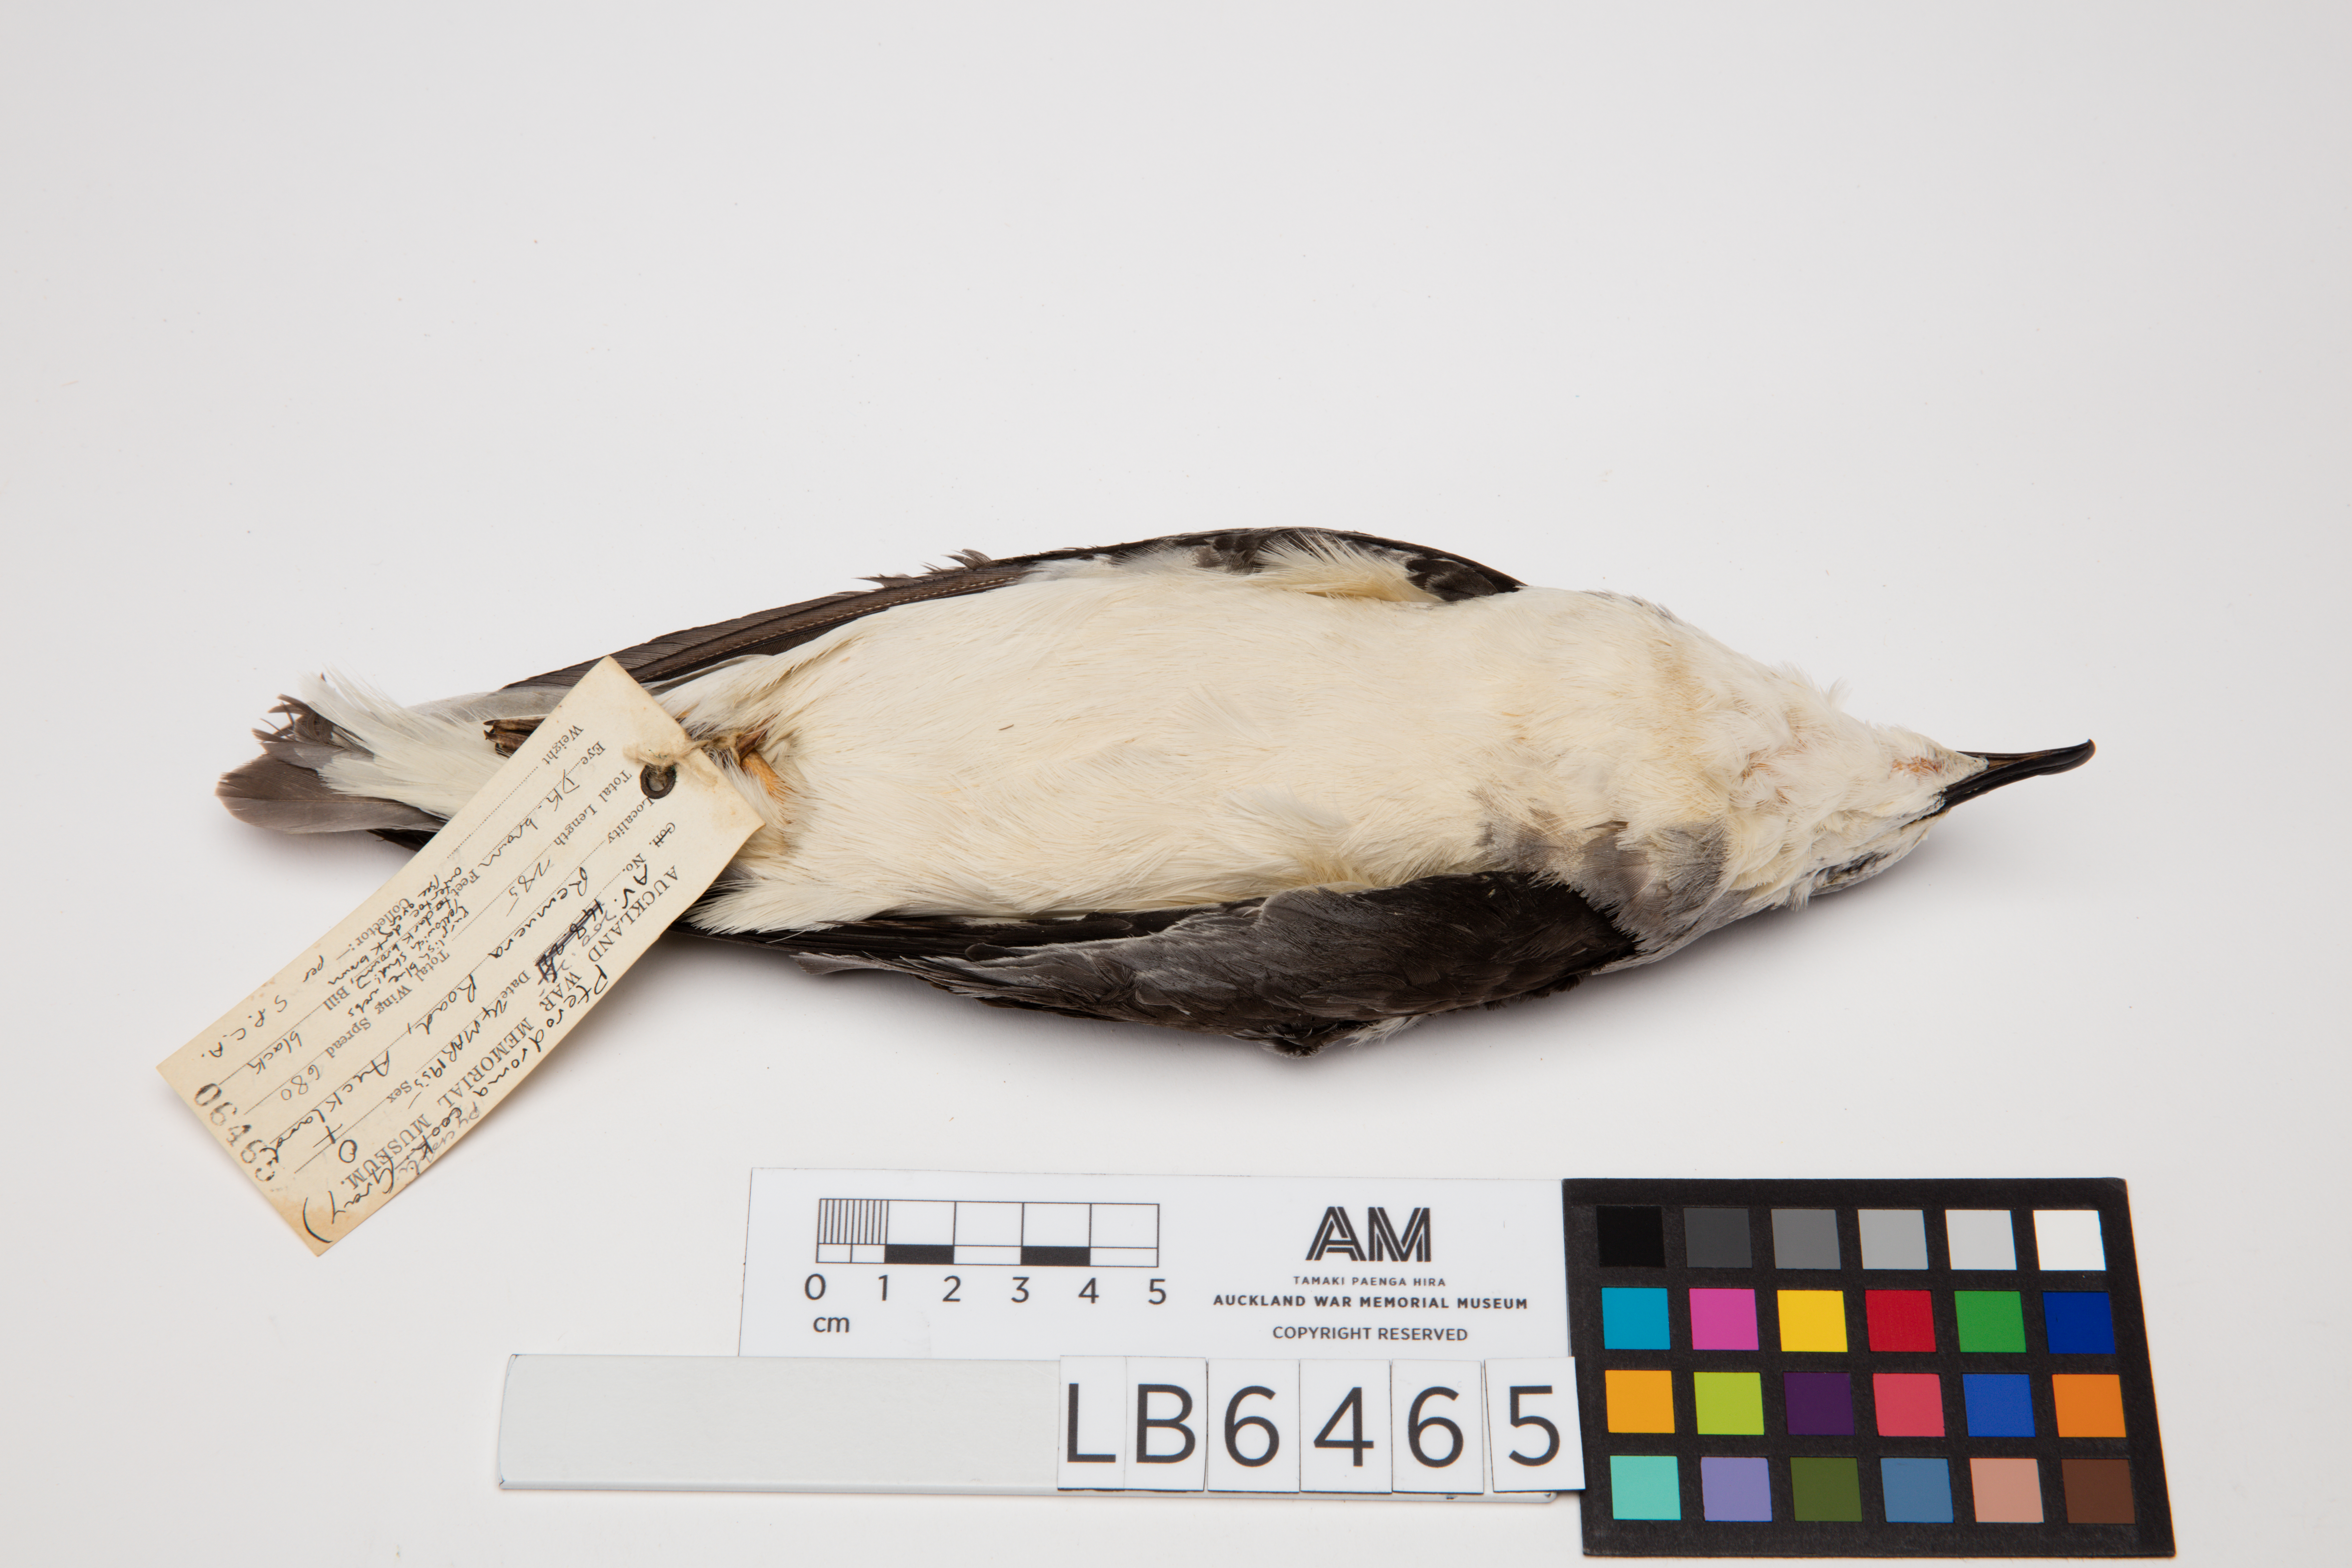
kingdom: Animalia
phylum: Chordata
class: Aves
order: Procellariiformes
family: Procellariidae
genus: Pterodroma
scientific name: Pterodroma pycrofti
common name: Pycroft's petrel
